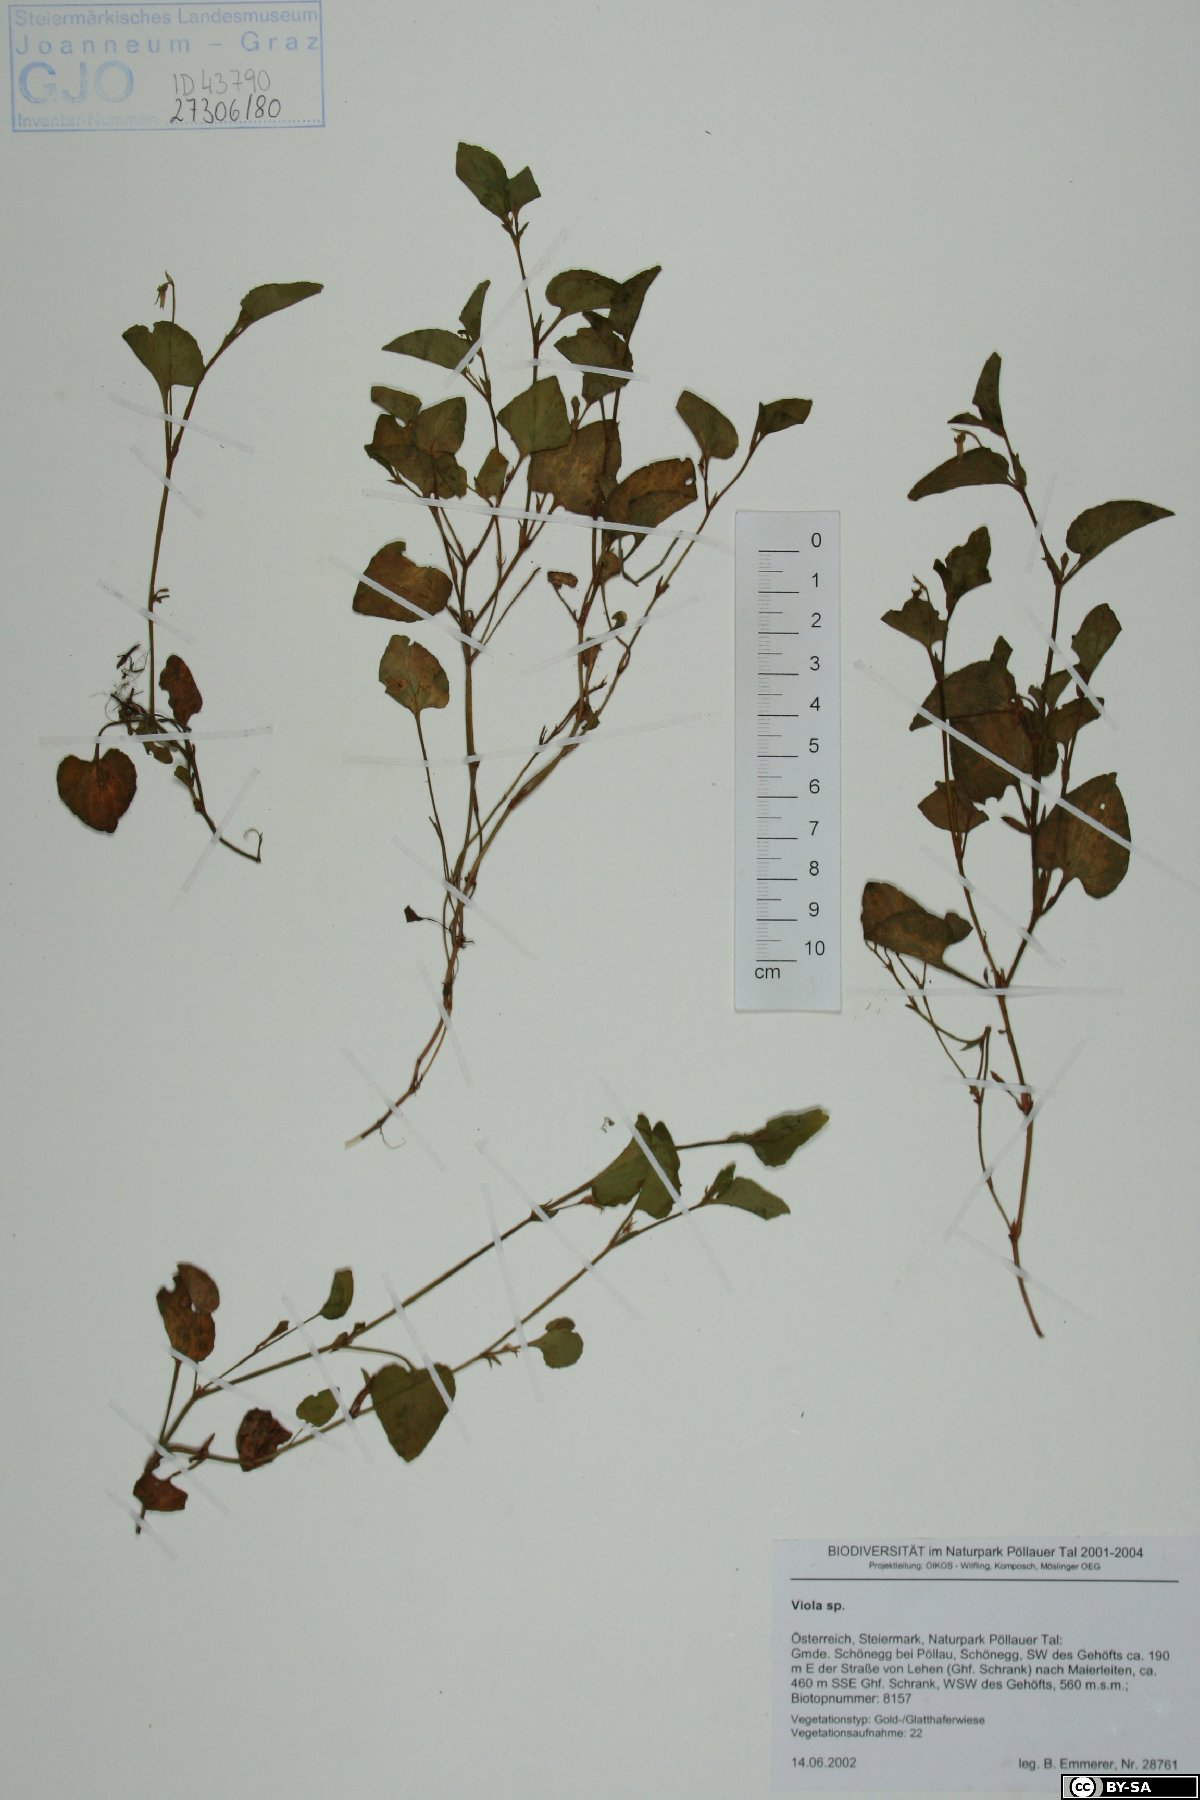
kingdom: Plantae
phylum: Tracheophyta
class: Magnoliopsida
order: Malpighiales
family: Violaceae
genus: Viola
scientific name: Viola
